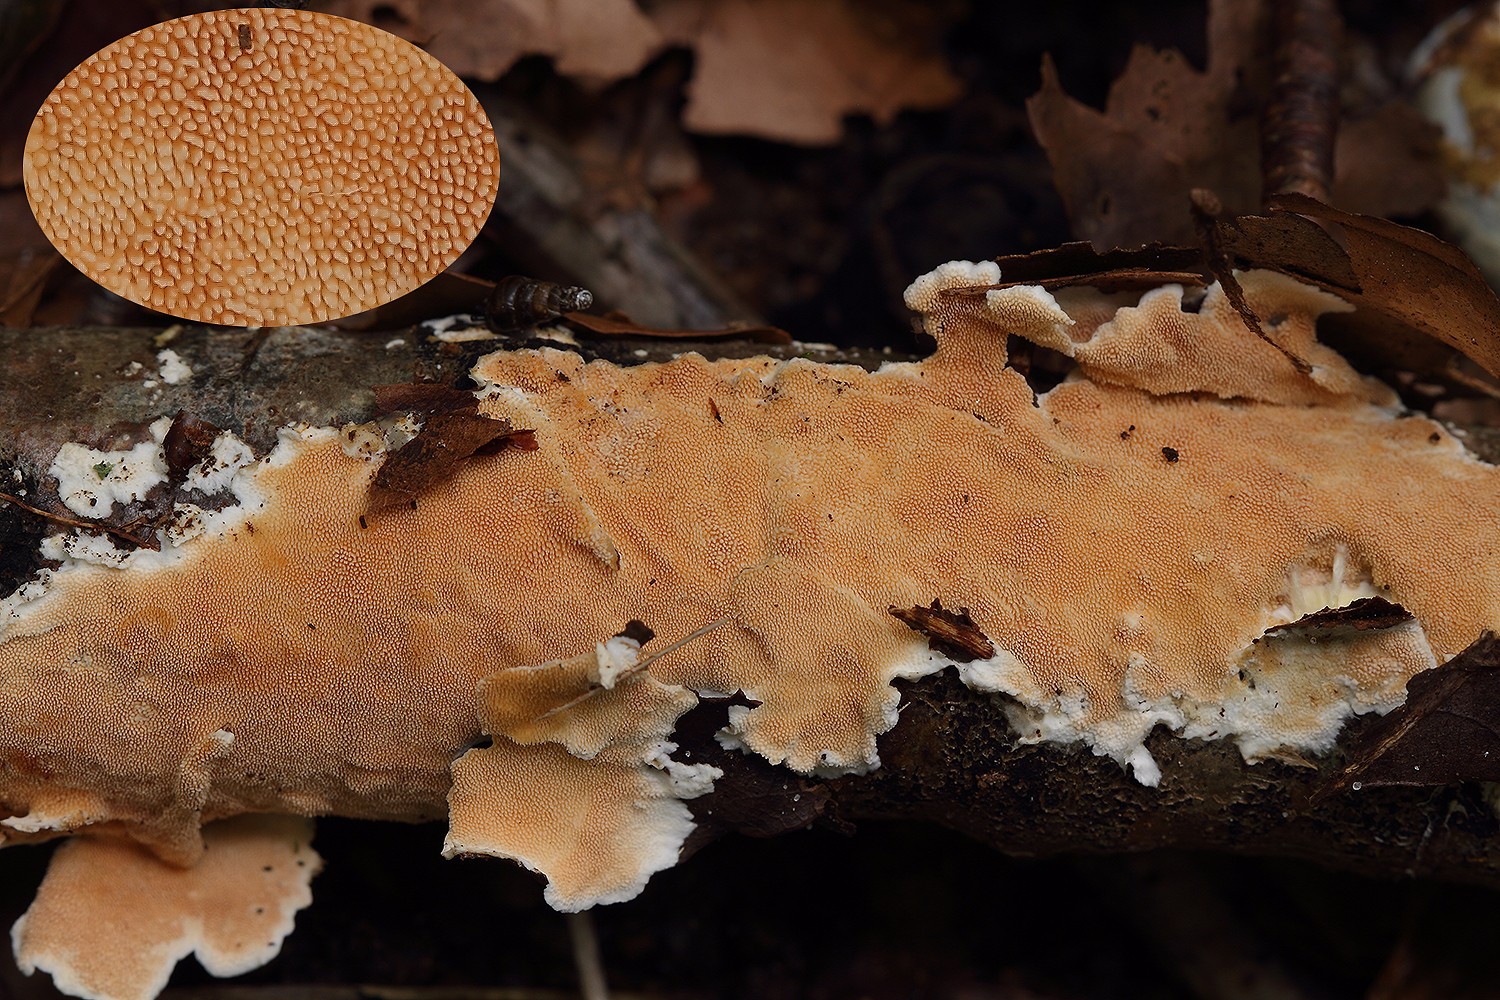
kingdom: Fungi
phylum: Basidiomycota
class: Agaricomycetes
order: Polyporales
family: Steccherinaceae
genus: Steccherinum
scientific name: Steccherinum ochraceum
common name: almindelig skønpig
